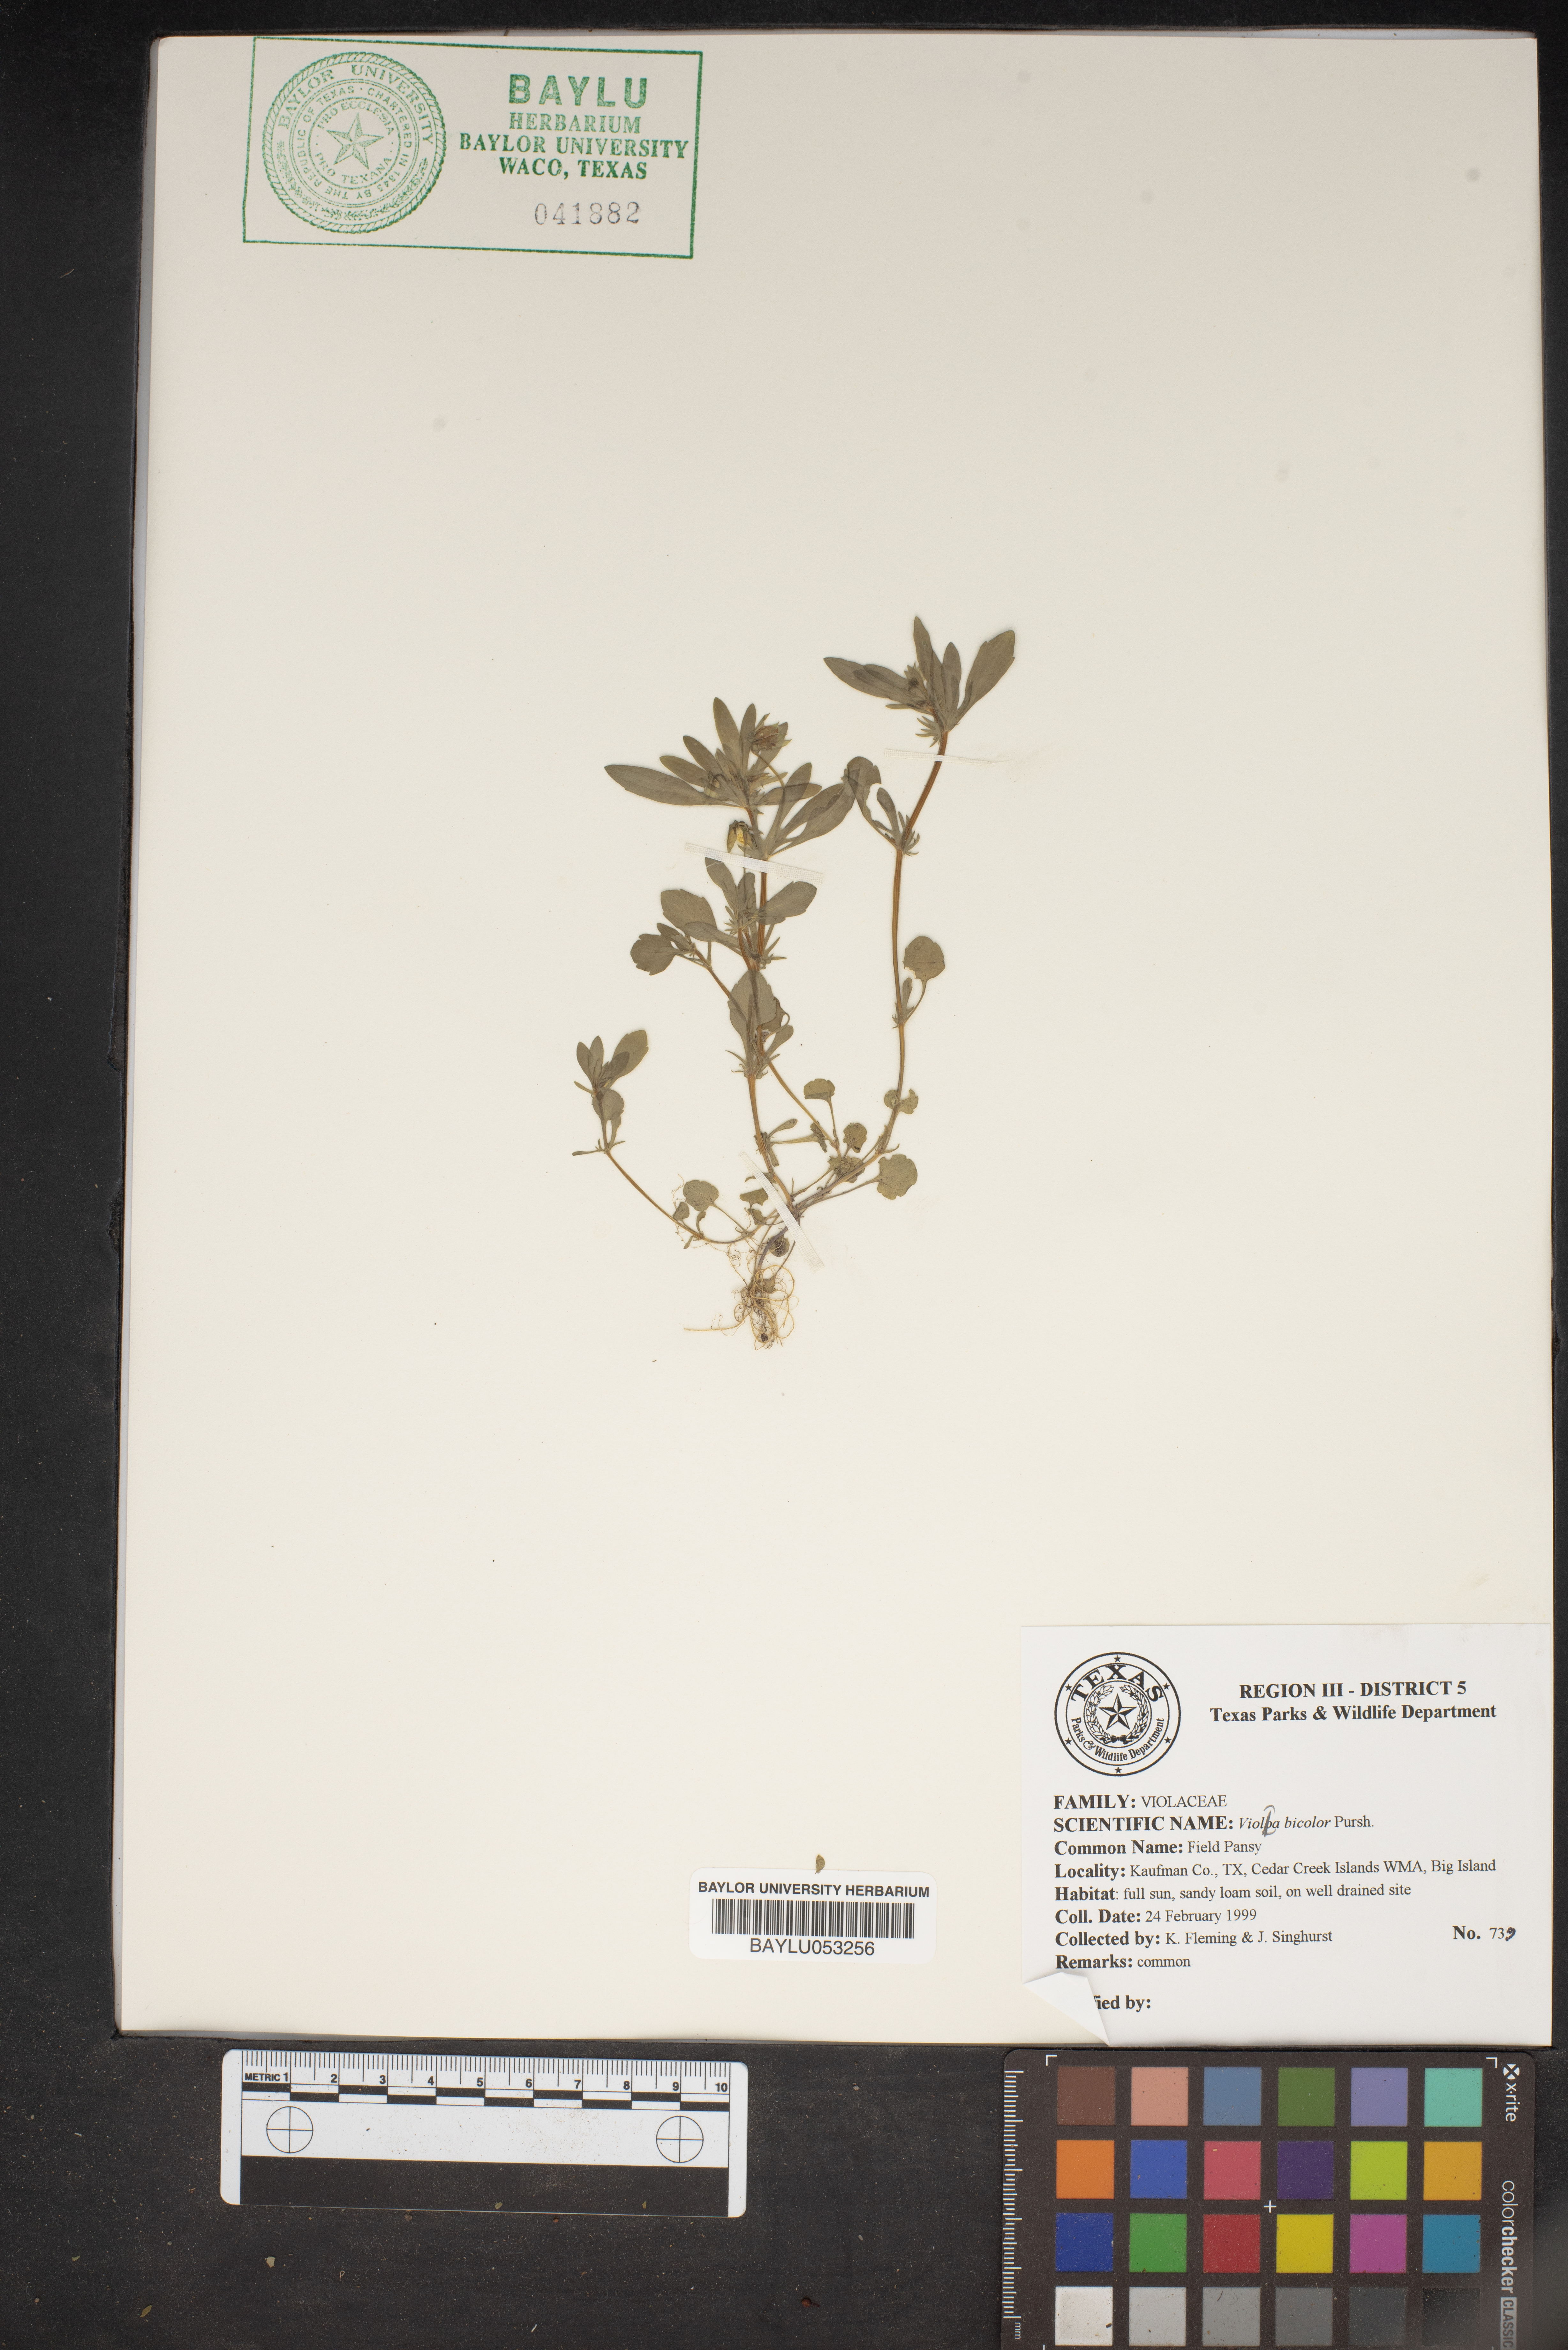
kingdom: Plantae
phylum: Tracheophyta
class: Magnoliopsida
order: Malpighiales
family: Violaceae
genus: Viola
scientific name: Viola rafinesquei
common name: American field pansy
